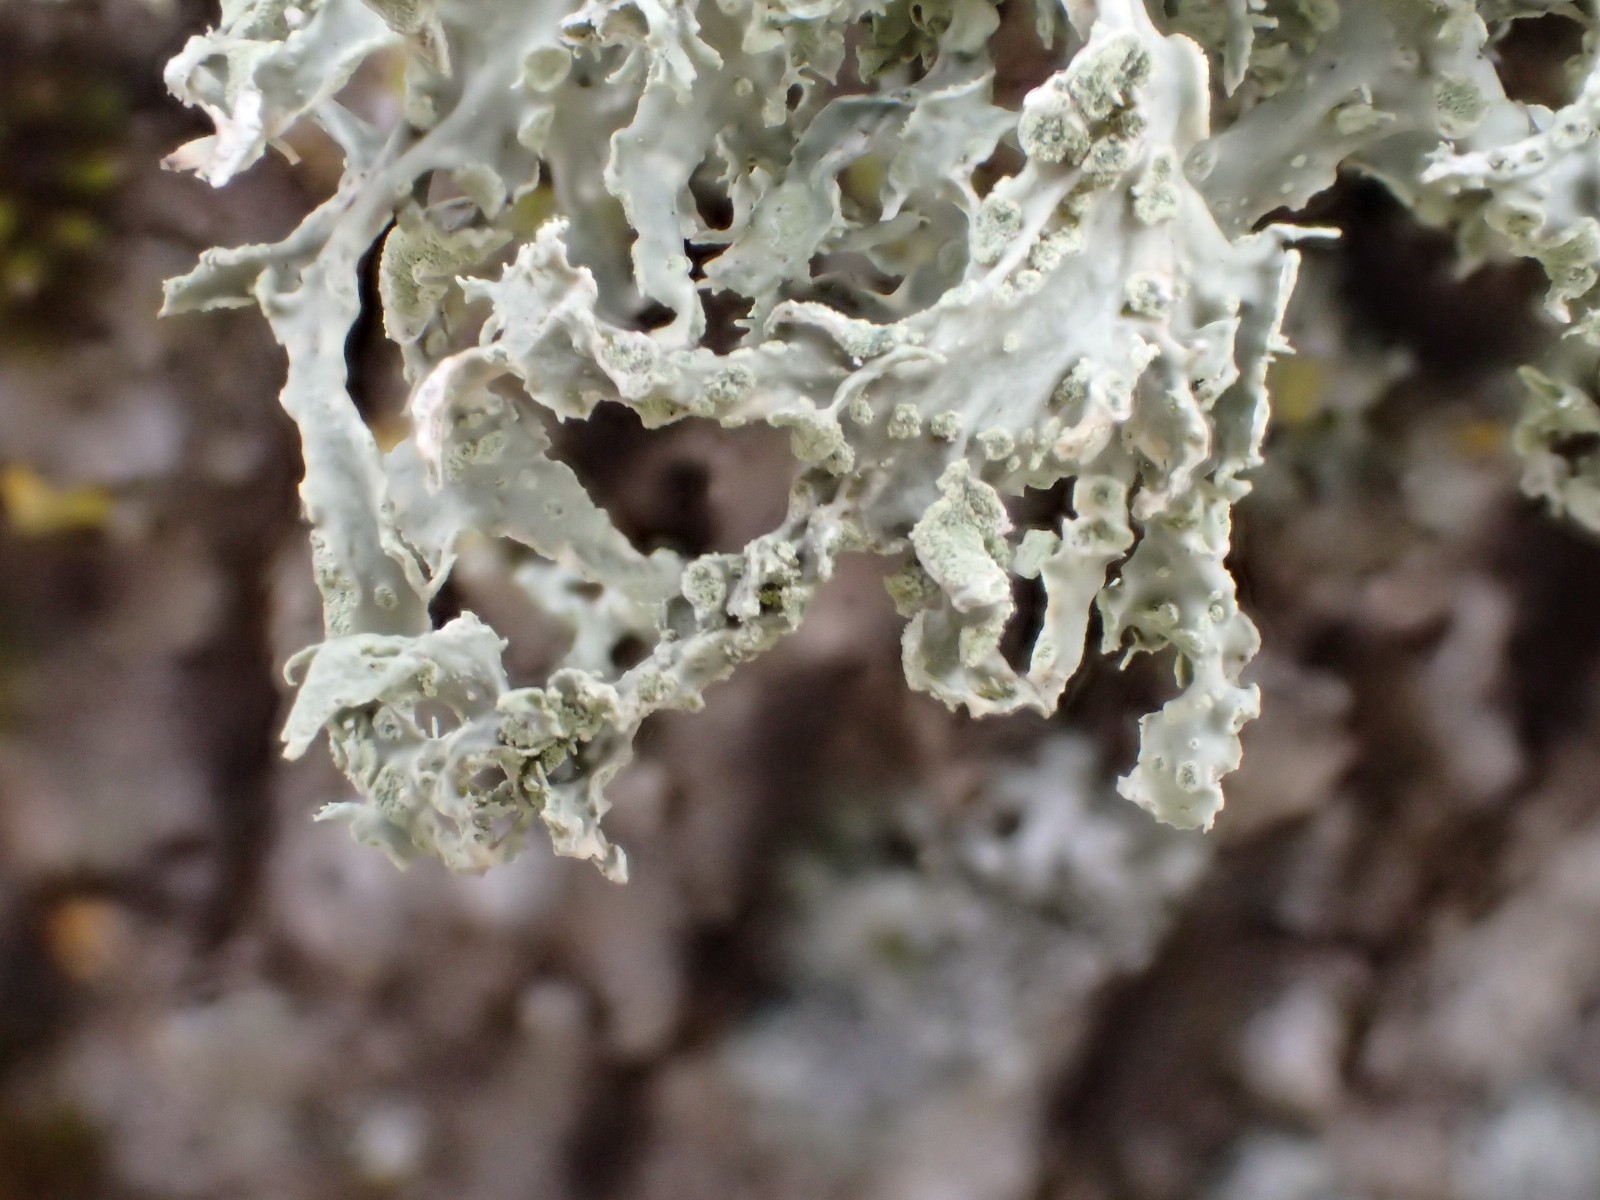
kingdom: Fungi
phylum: Ascomycota
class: Lecanoromycetes
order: Lecanorales
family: Ramalinaceae
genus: Ramalina
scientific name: Ramalina farinacea
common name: melet grenlav
